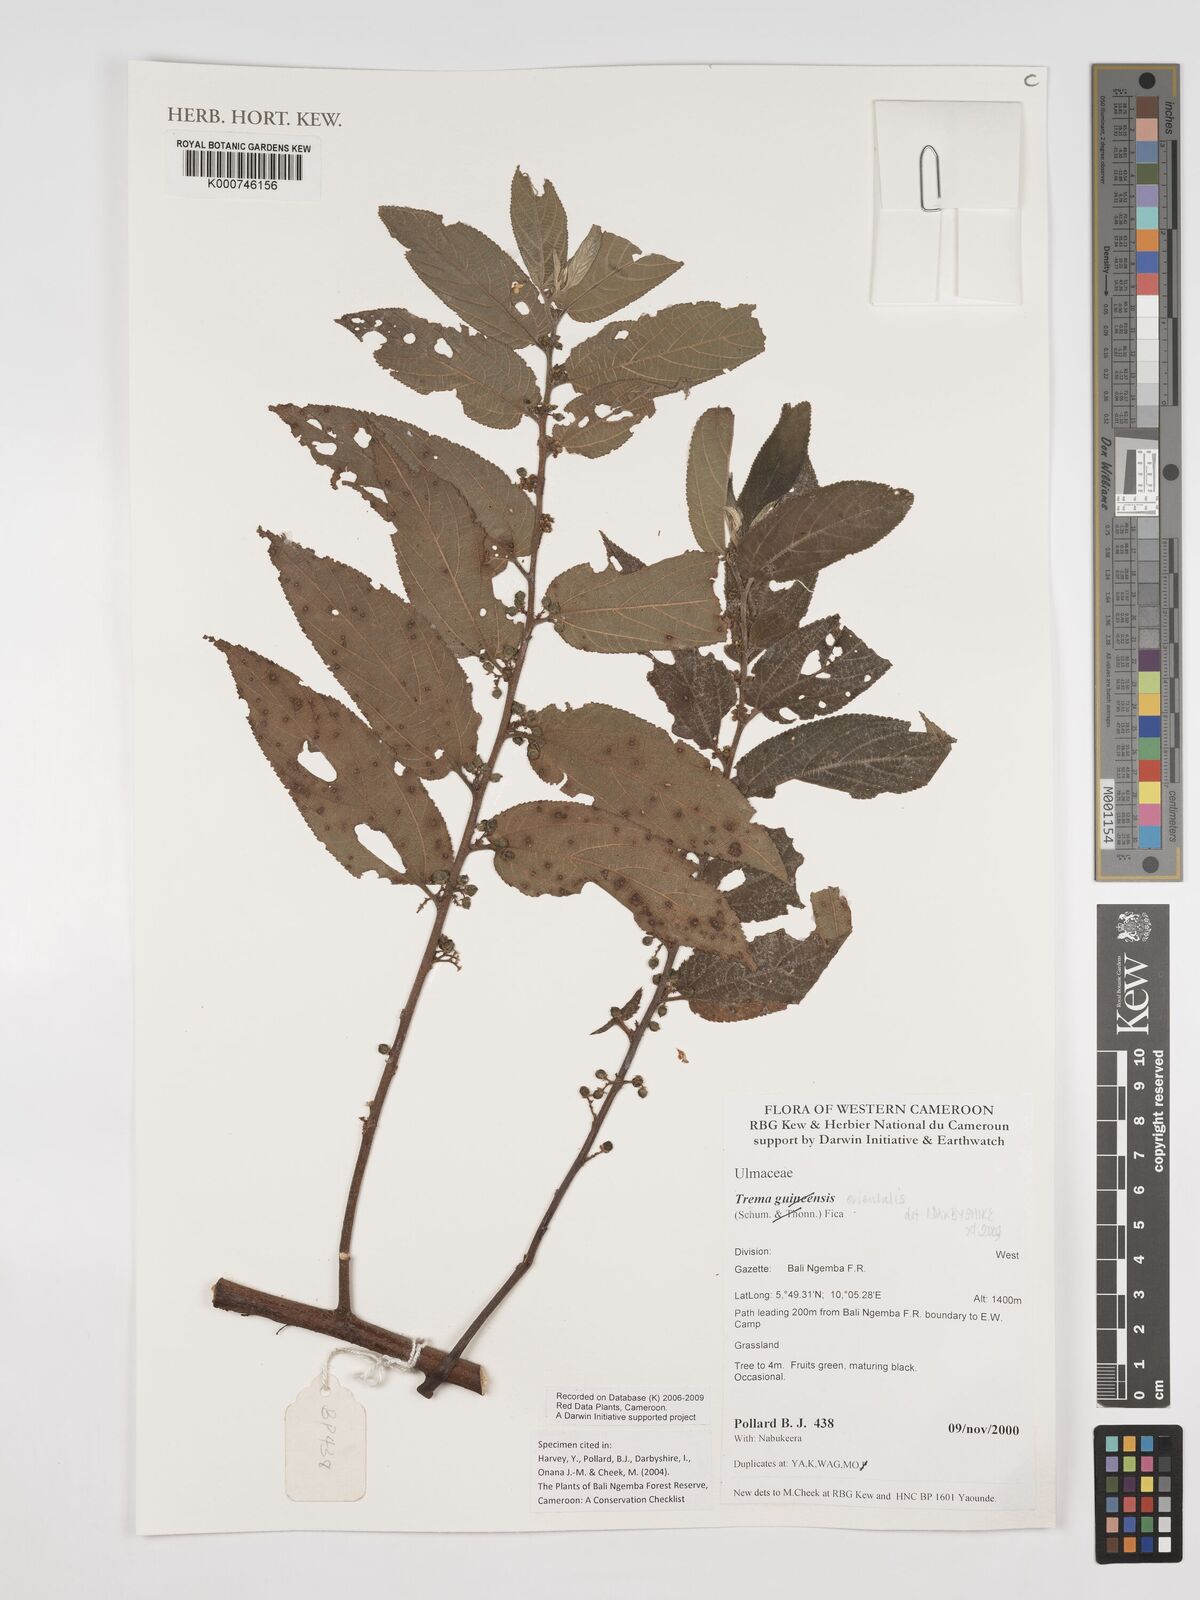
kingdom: Plantae
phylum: Tracheophyta
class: Magnoliopsida
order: Rosales
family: Cannabaceae
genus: Trema
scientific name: Trema
